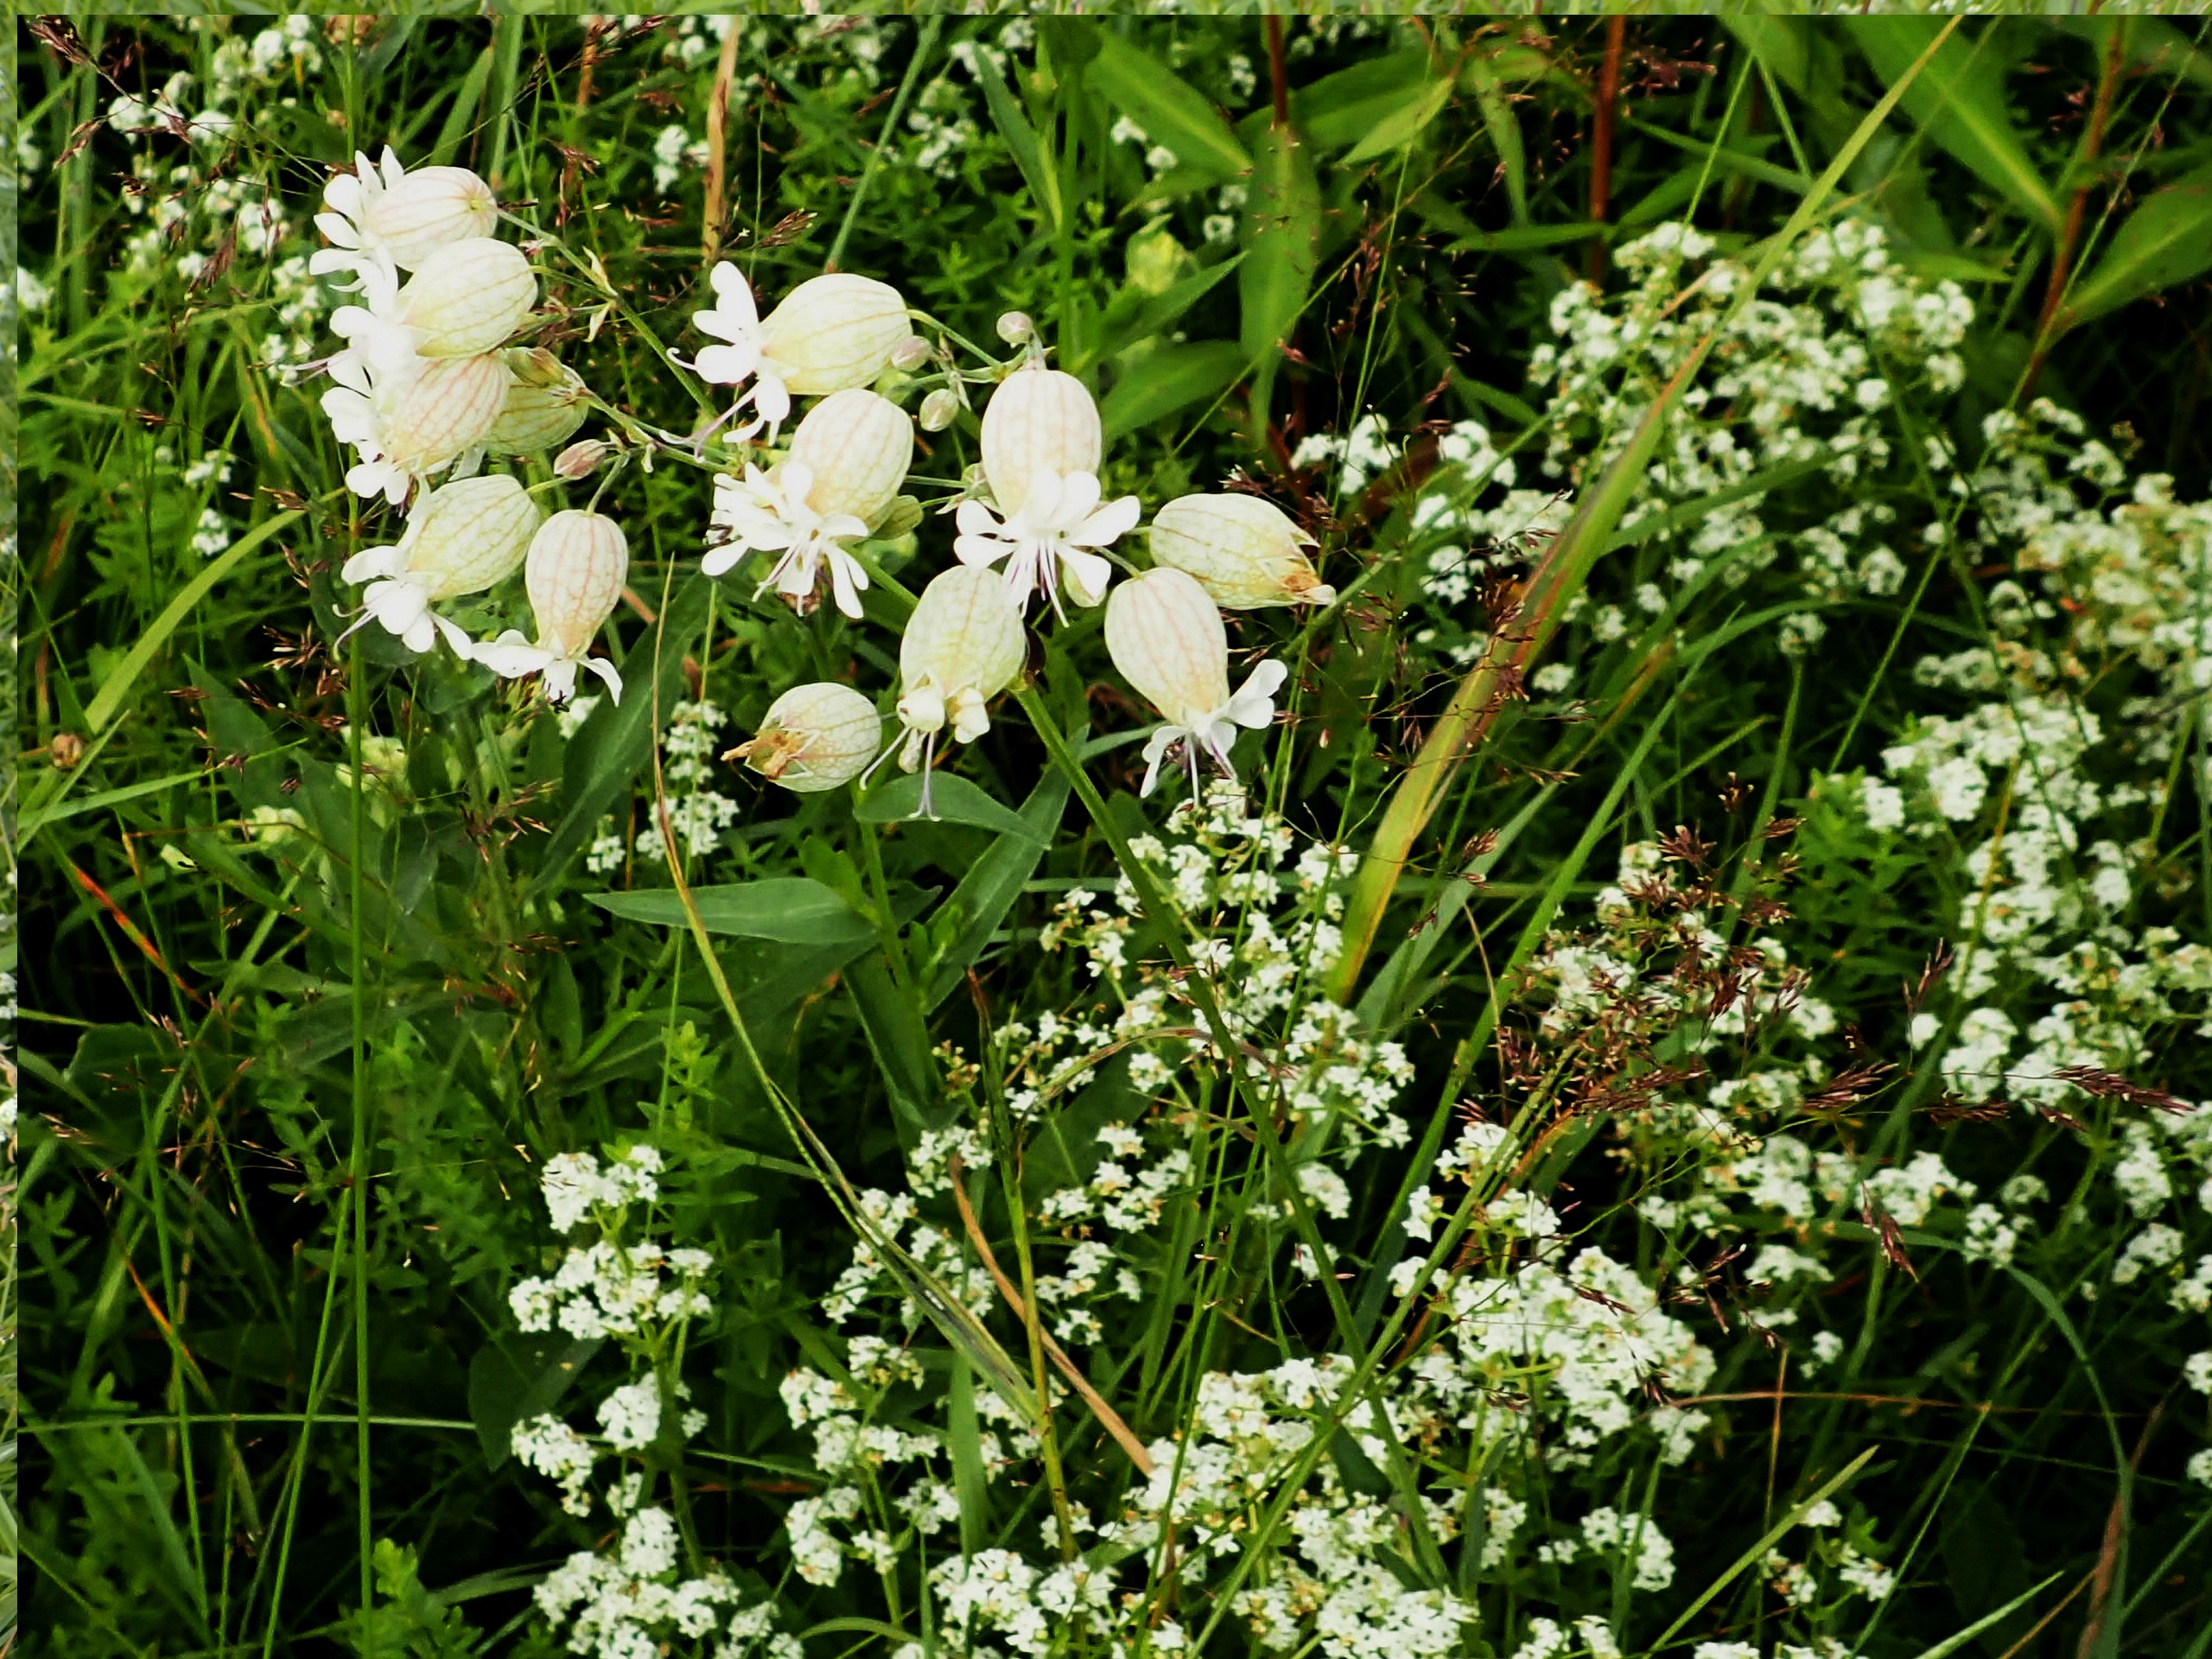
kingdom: Plantae
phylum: Tracheophyta
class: Magnoliopsida
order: Caryophyllales
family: Caryophyllaceae
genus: Silene
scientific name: Silene vulgaris
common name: Blæresmælde
